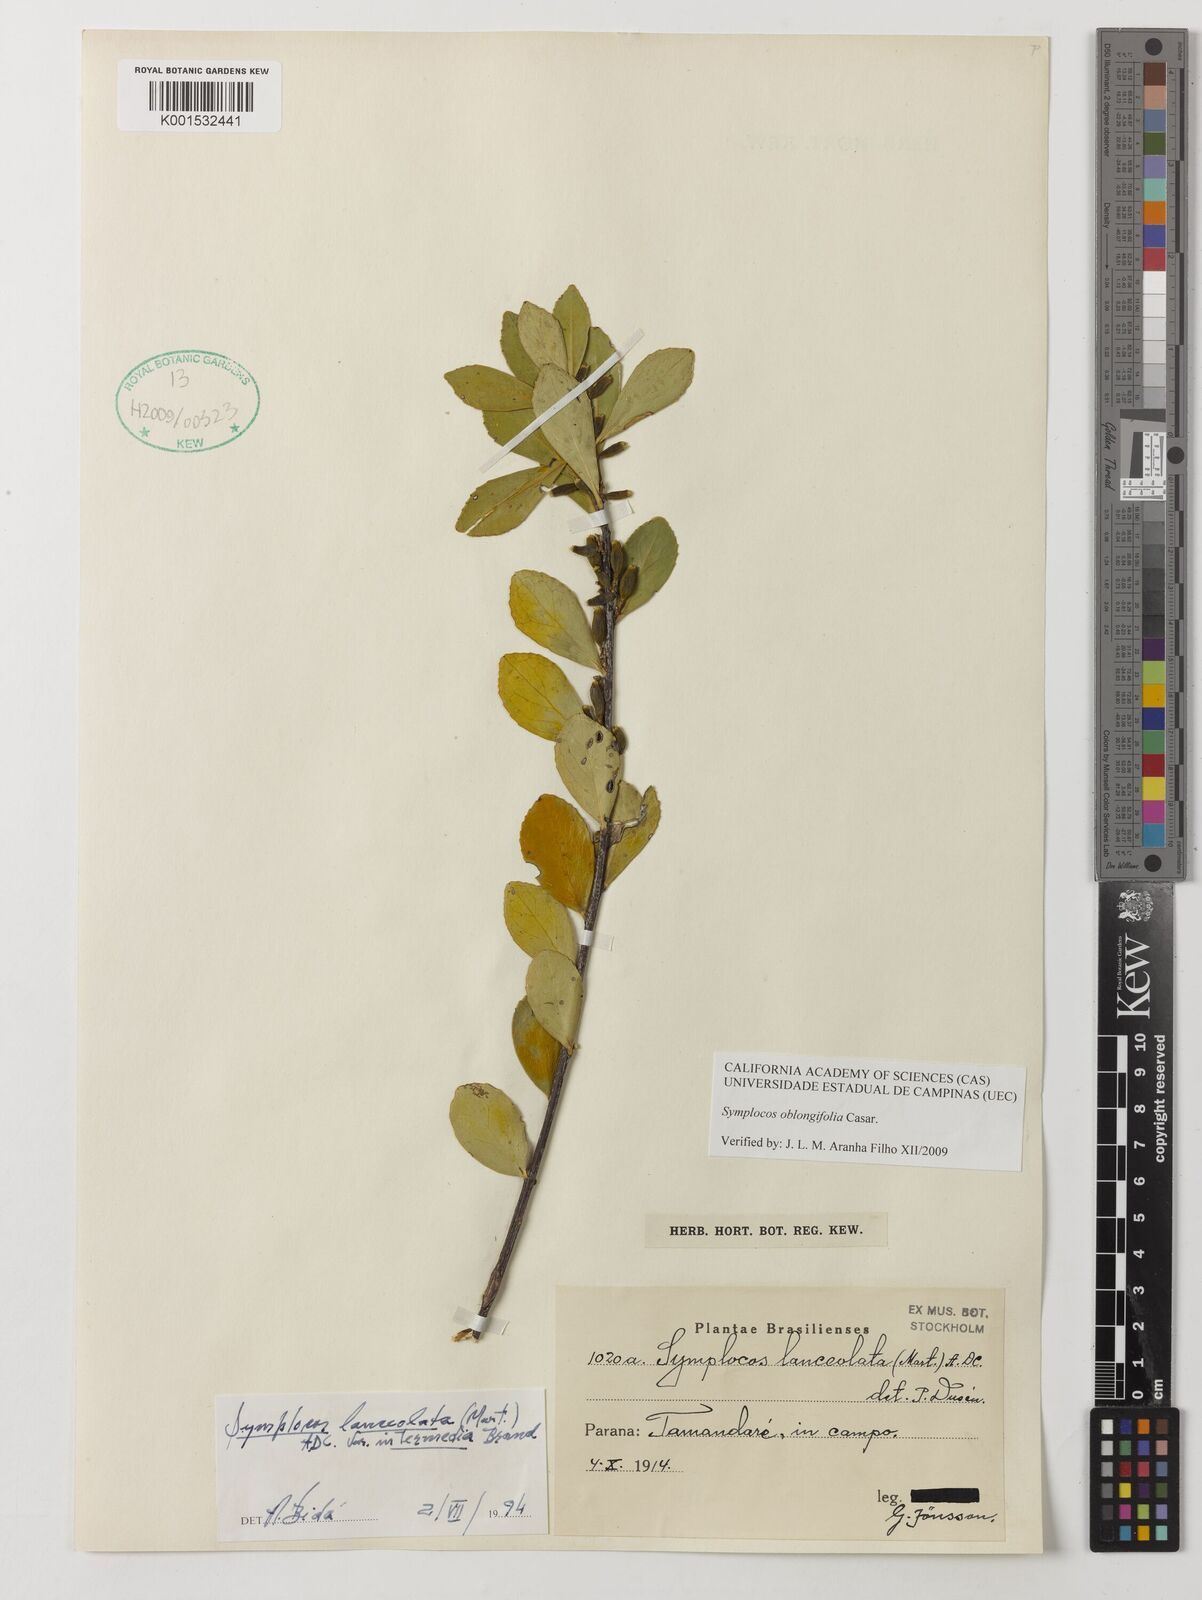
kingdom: Plantae
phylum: Tracheophyta
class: Magnoliopsida
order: Ericales
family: Symplocaceae
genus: Symplocos
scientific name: Symplocos oblongifolia
